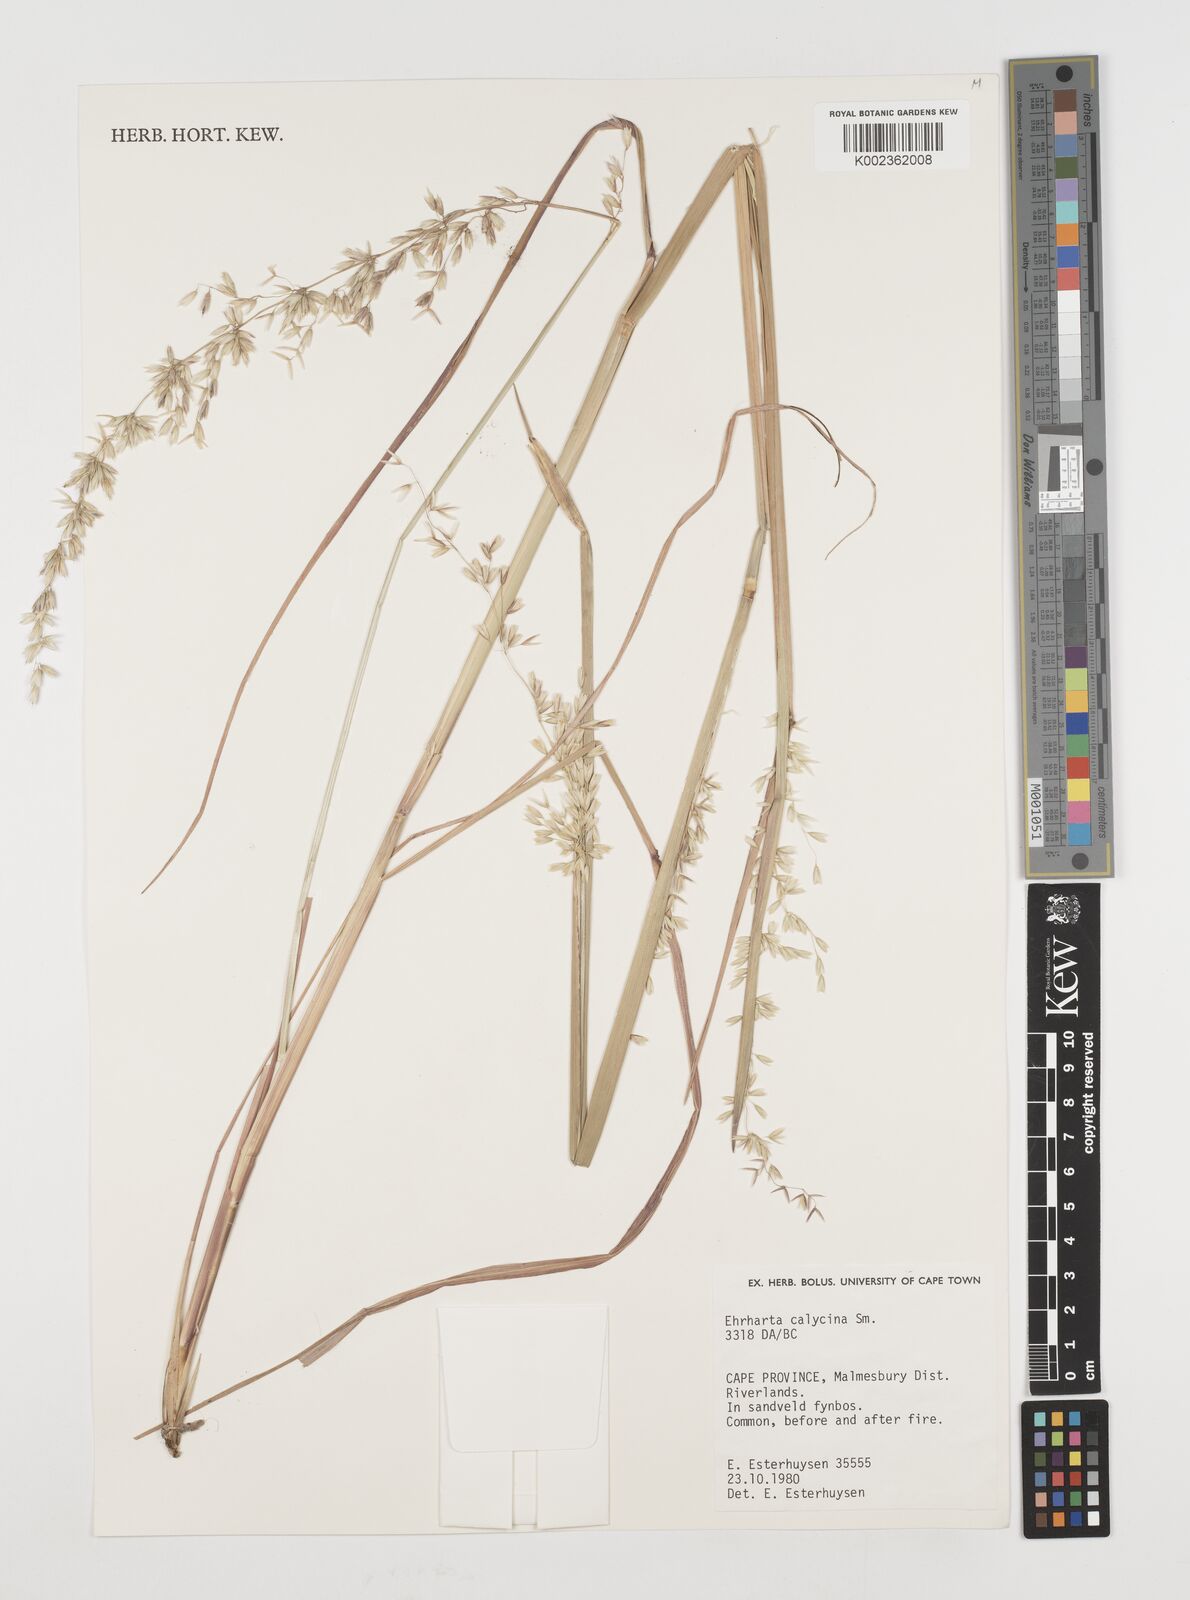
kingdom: Plantae
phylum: Tracheophyta
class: Liliopsida
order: Poales
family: Poaceae
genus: Ehrharta
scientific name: Ehrharta calycina
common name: Perennial veldtgrass
